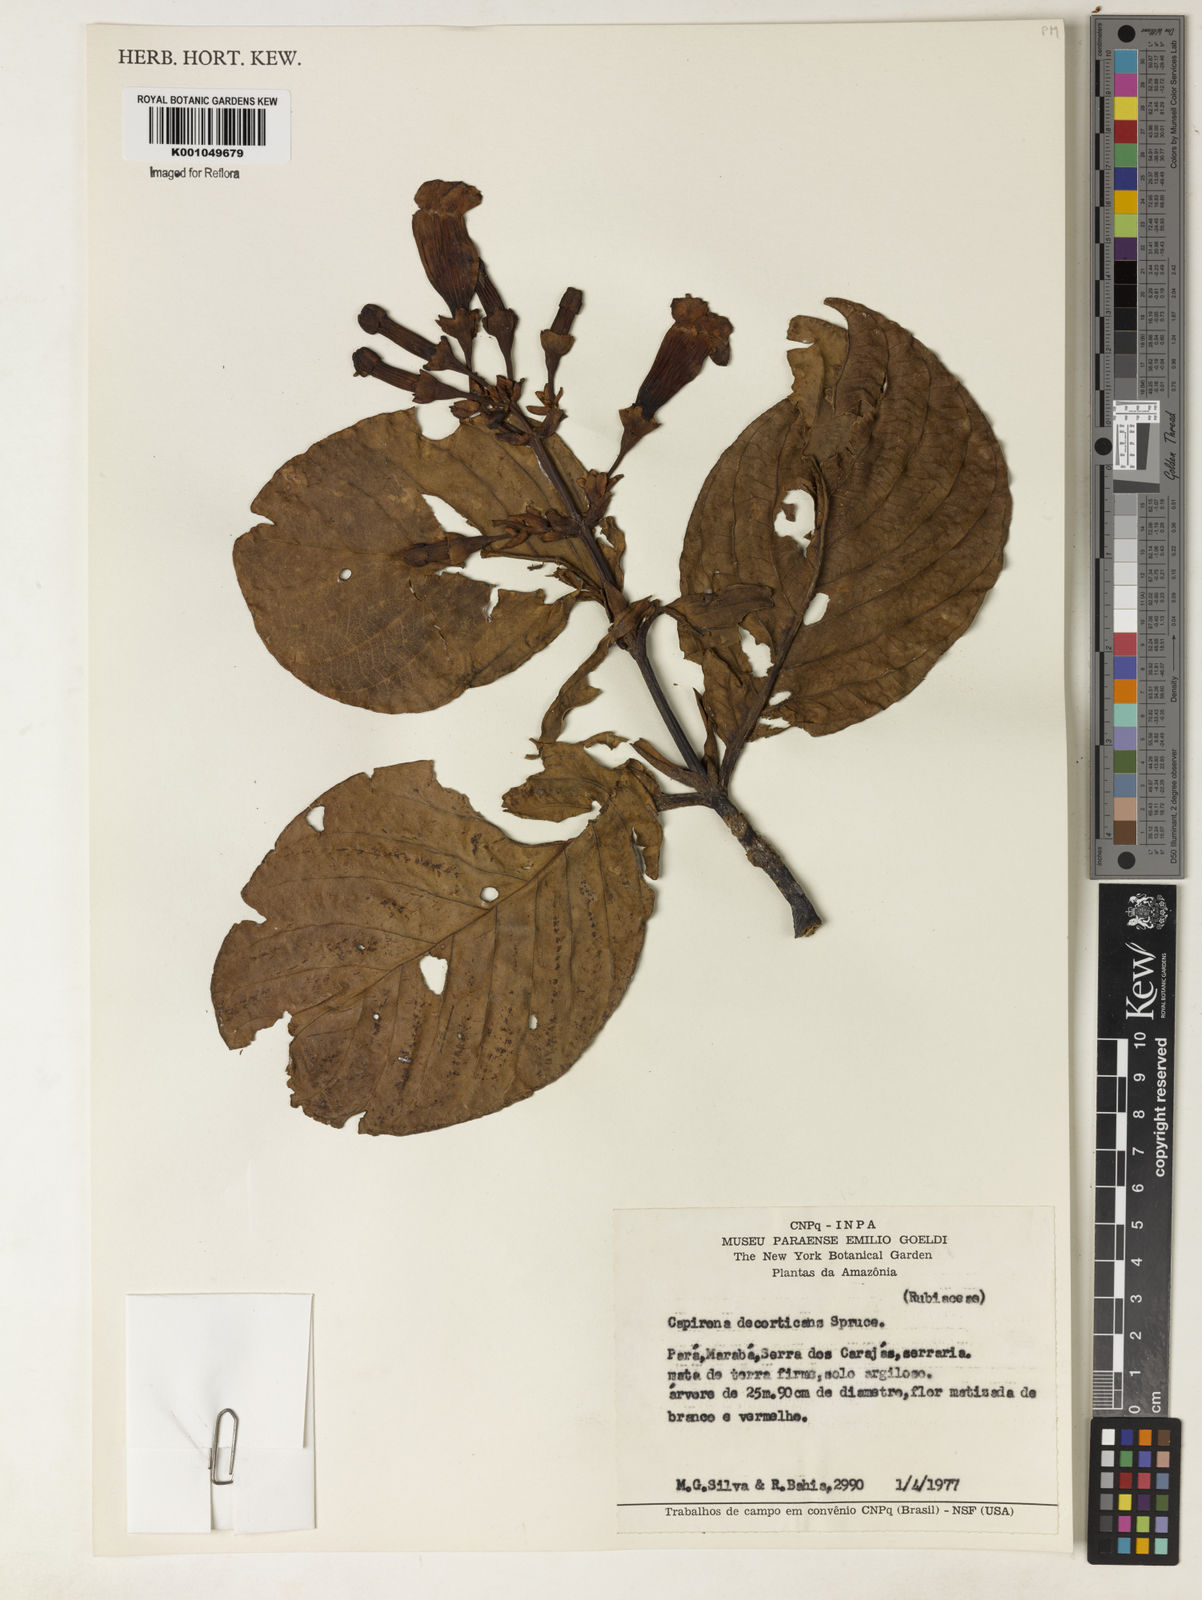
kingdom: Plantae
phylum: Tracheophyta
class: Magnoliopsida
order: Gentianales
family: Rubiaceae
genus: Capirona
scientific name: Capirona macrophylla
